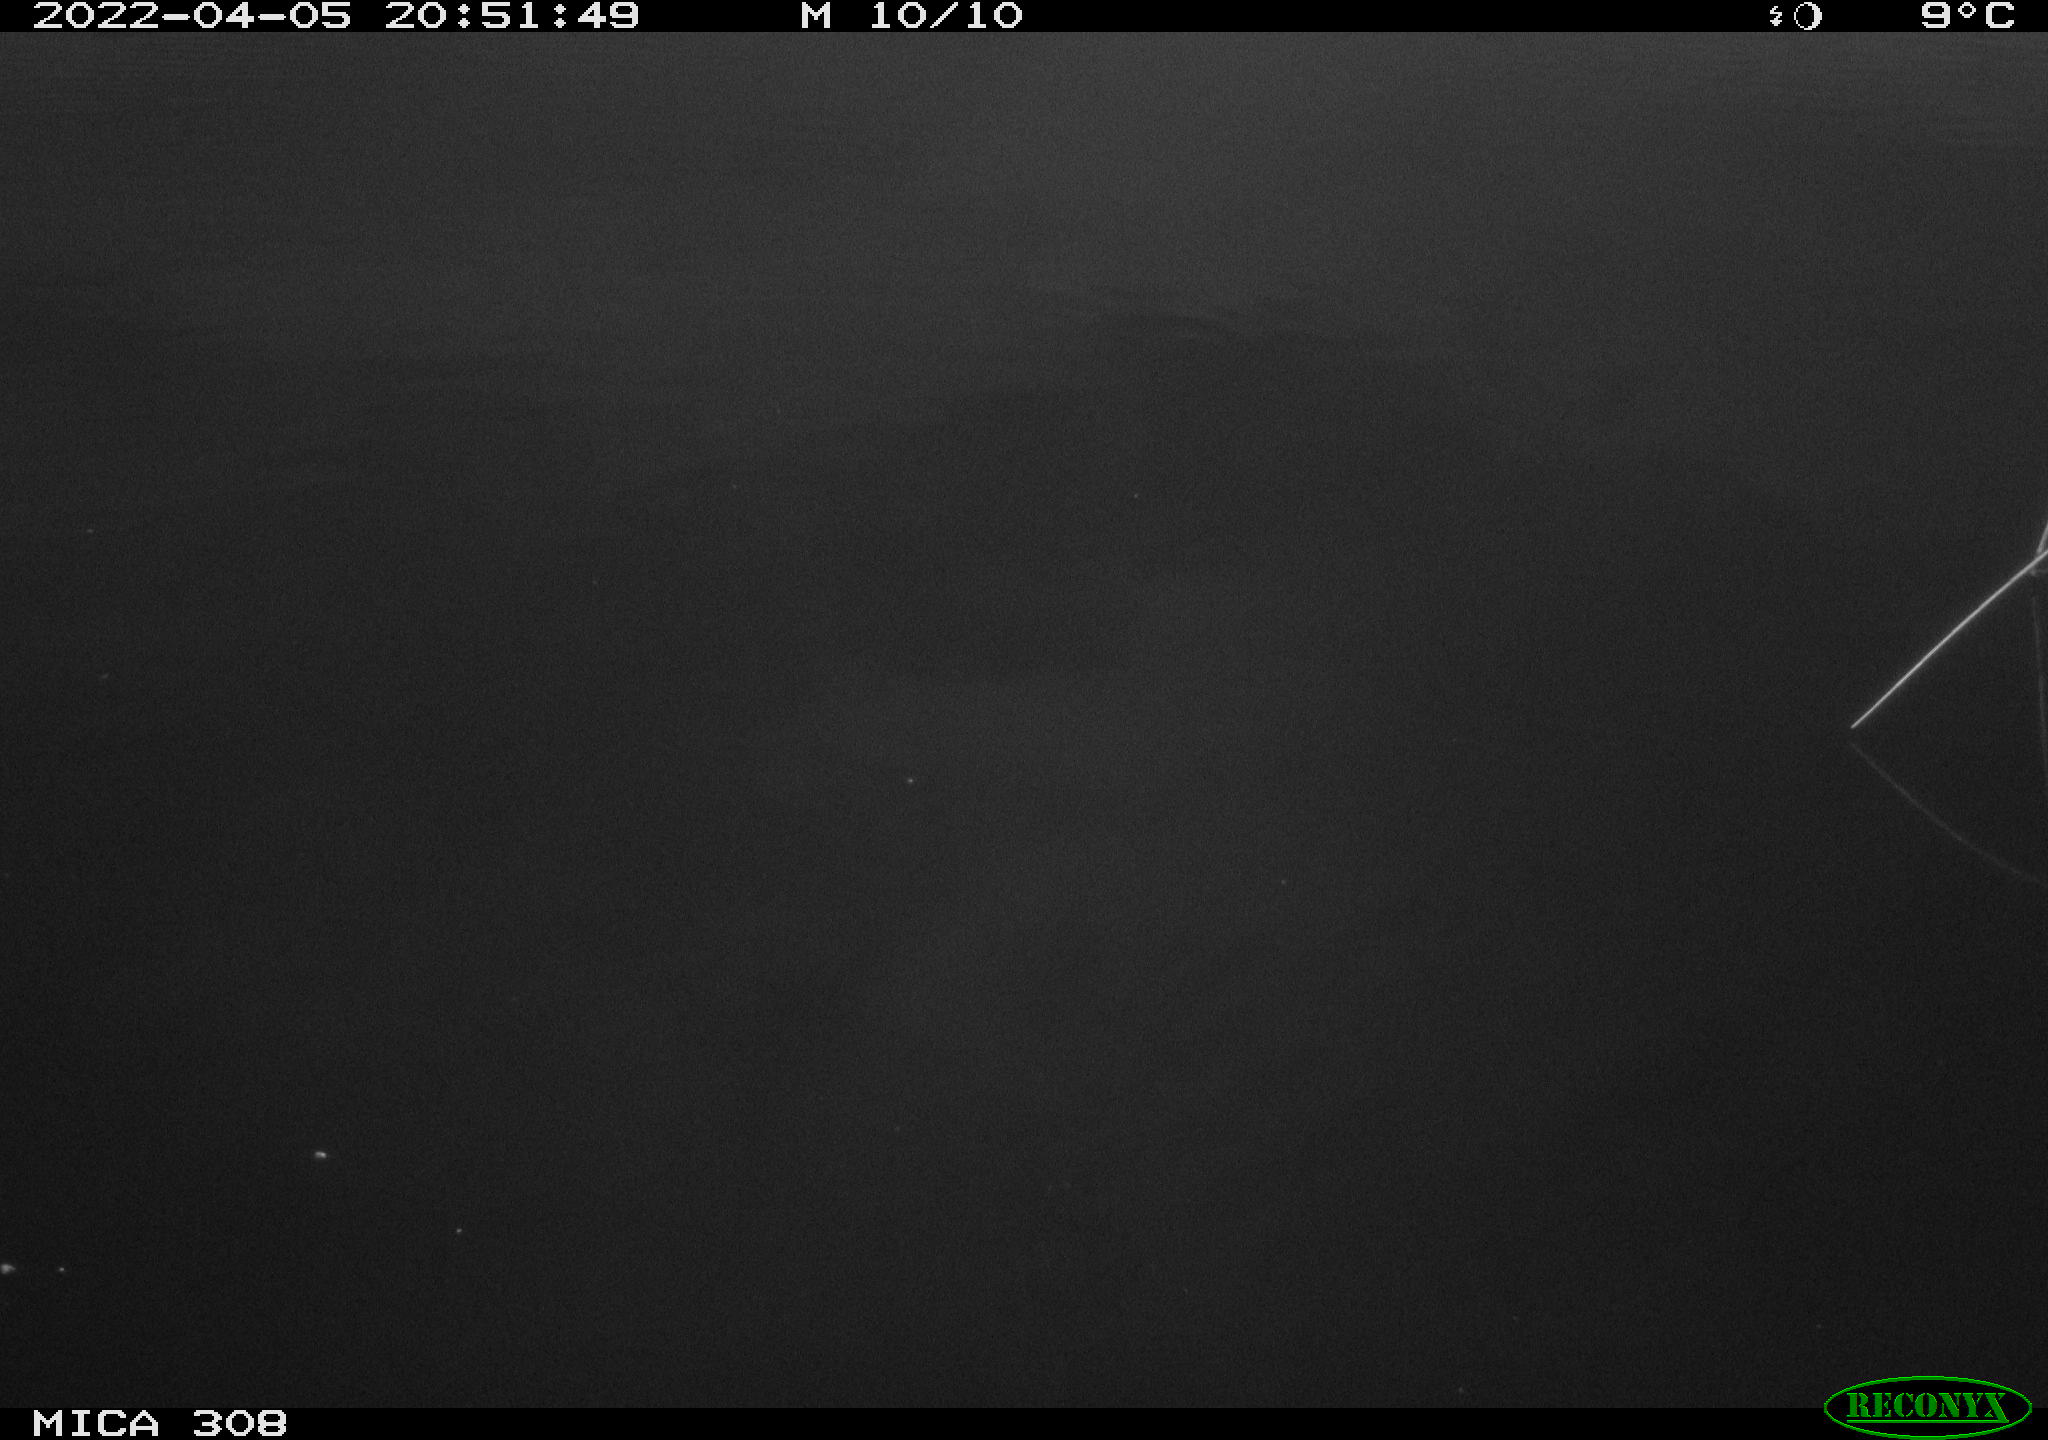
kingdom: Animalia
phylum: Chordata
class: Aves
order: Anseriformes
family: Anatidae
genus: Anas
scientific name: Anas platyrhynchos
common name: Mallard
